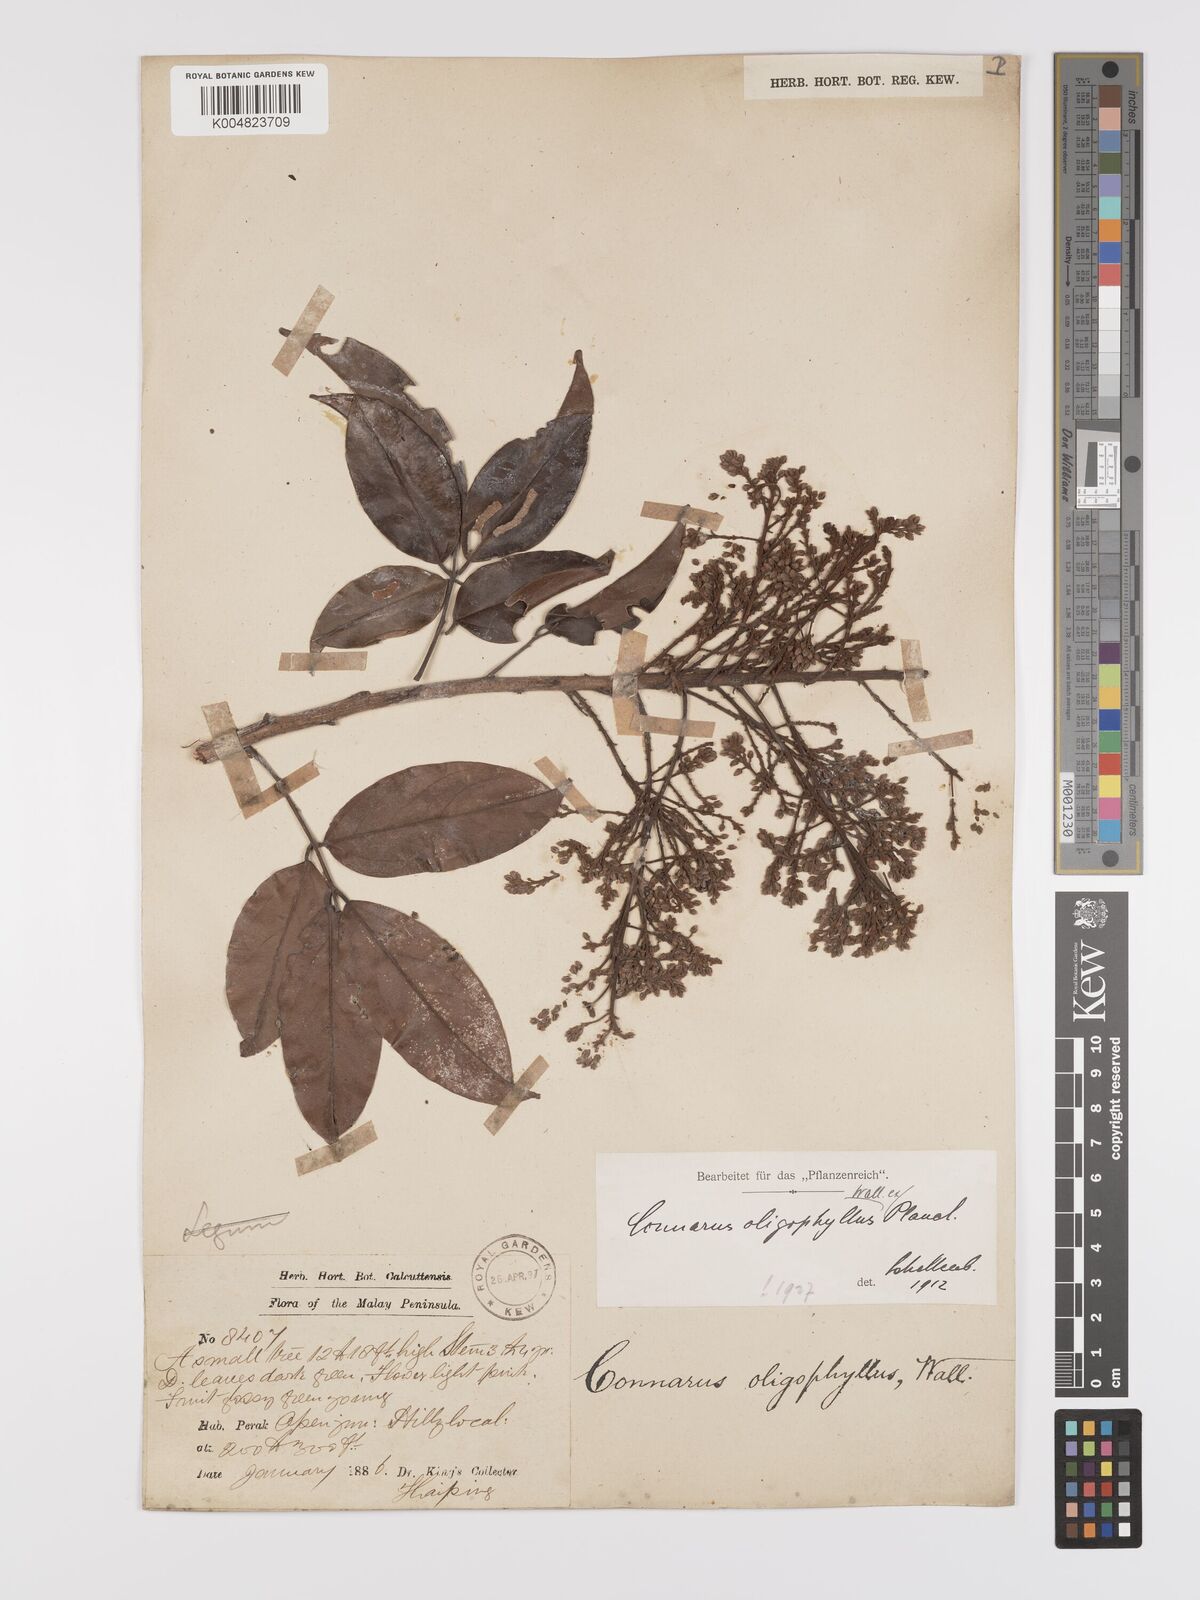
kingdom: Plantae
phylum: Tracheophyta
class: Magnoliopsida
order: Oxalidales
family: Connaraceae
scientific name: Connaraceae
